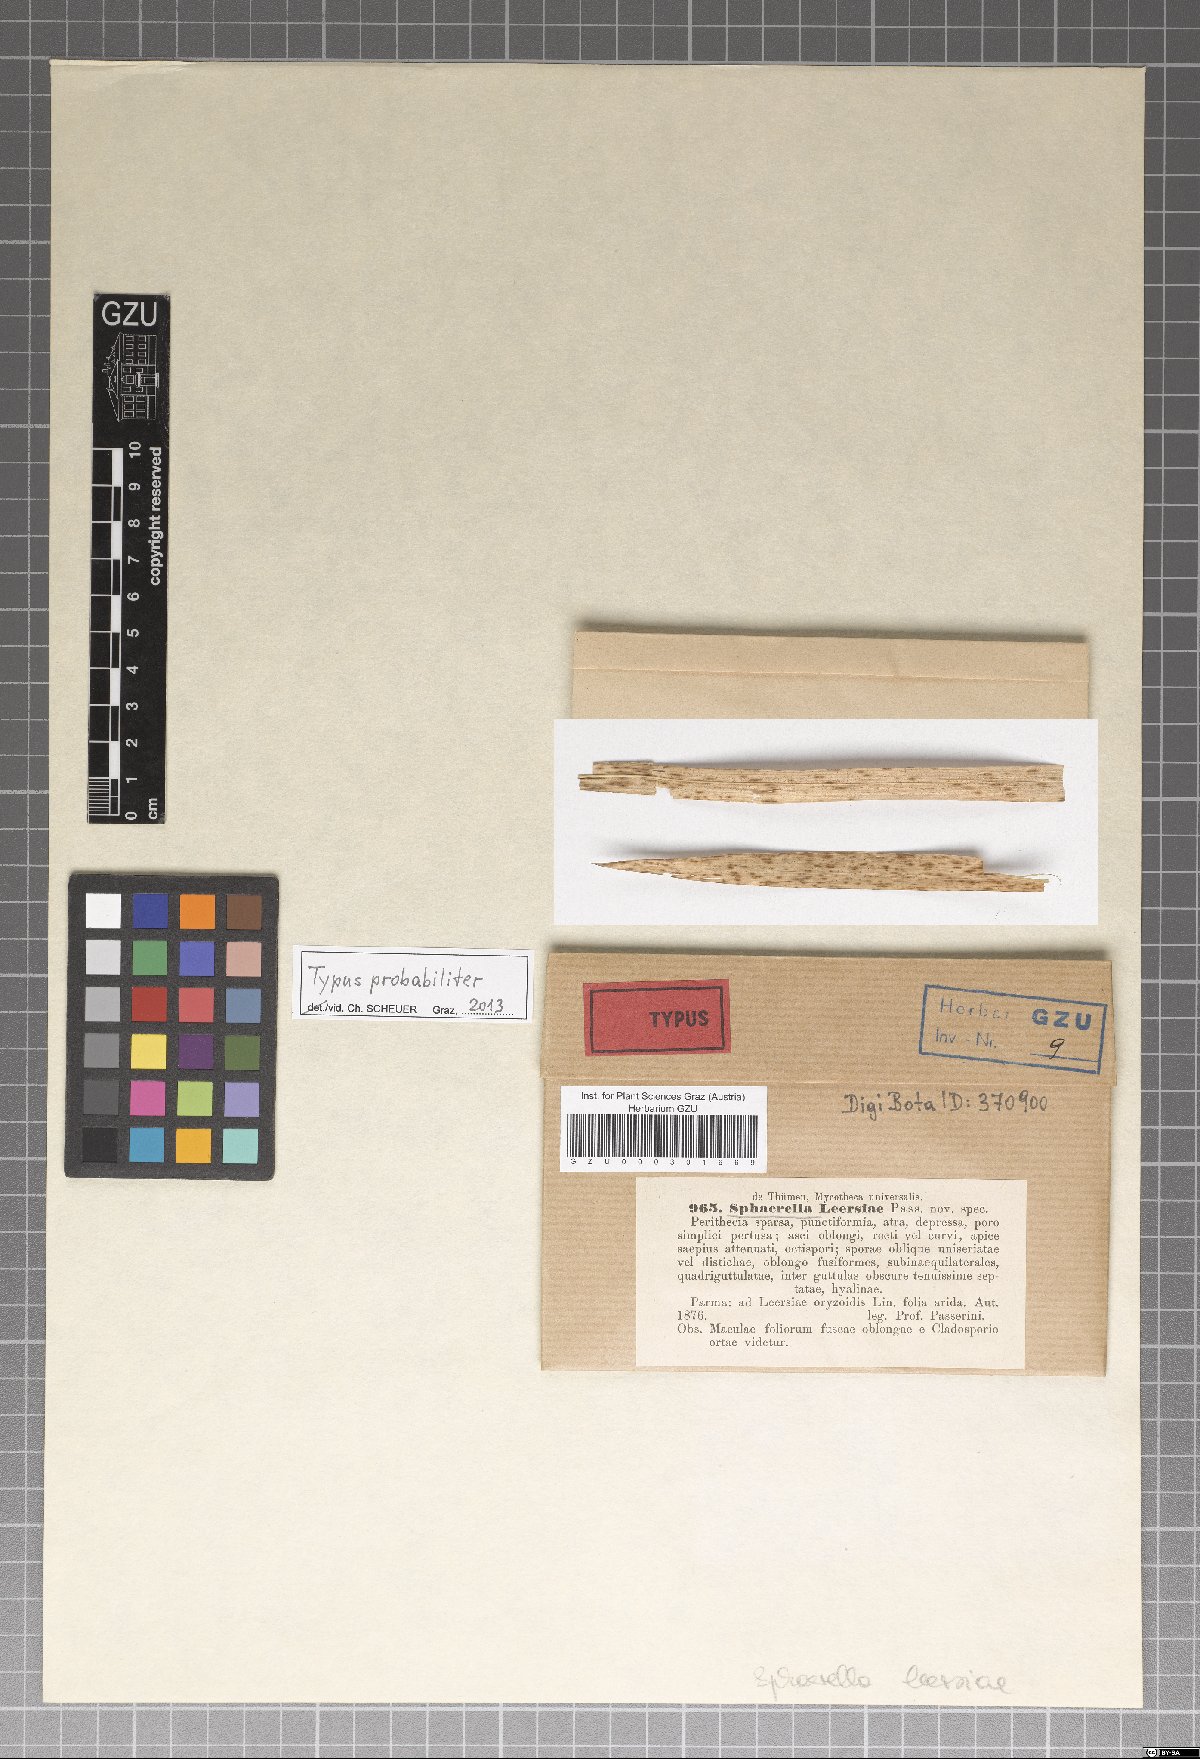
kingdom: Fungi
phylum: Ascomycota
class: Dothideomycetes
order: Pleosporales
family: Leptosphaeriaceae
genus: Leptosphaeria
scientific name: Leptosphaeria leersiae
